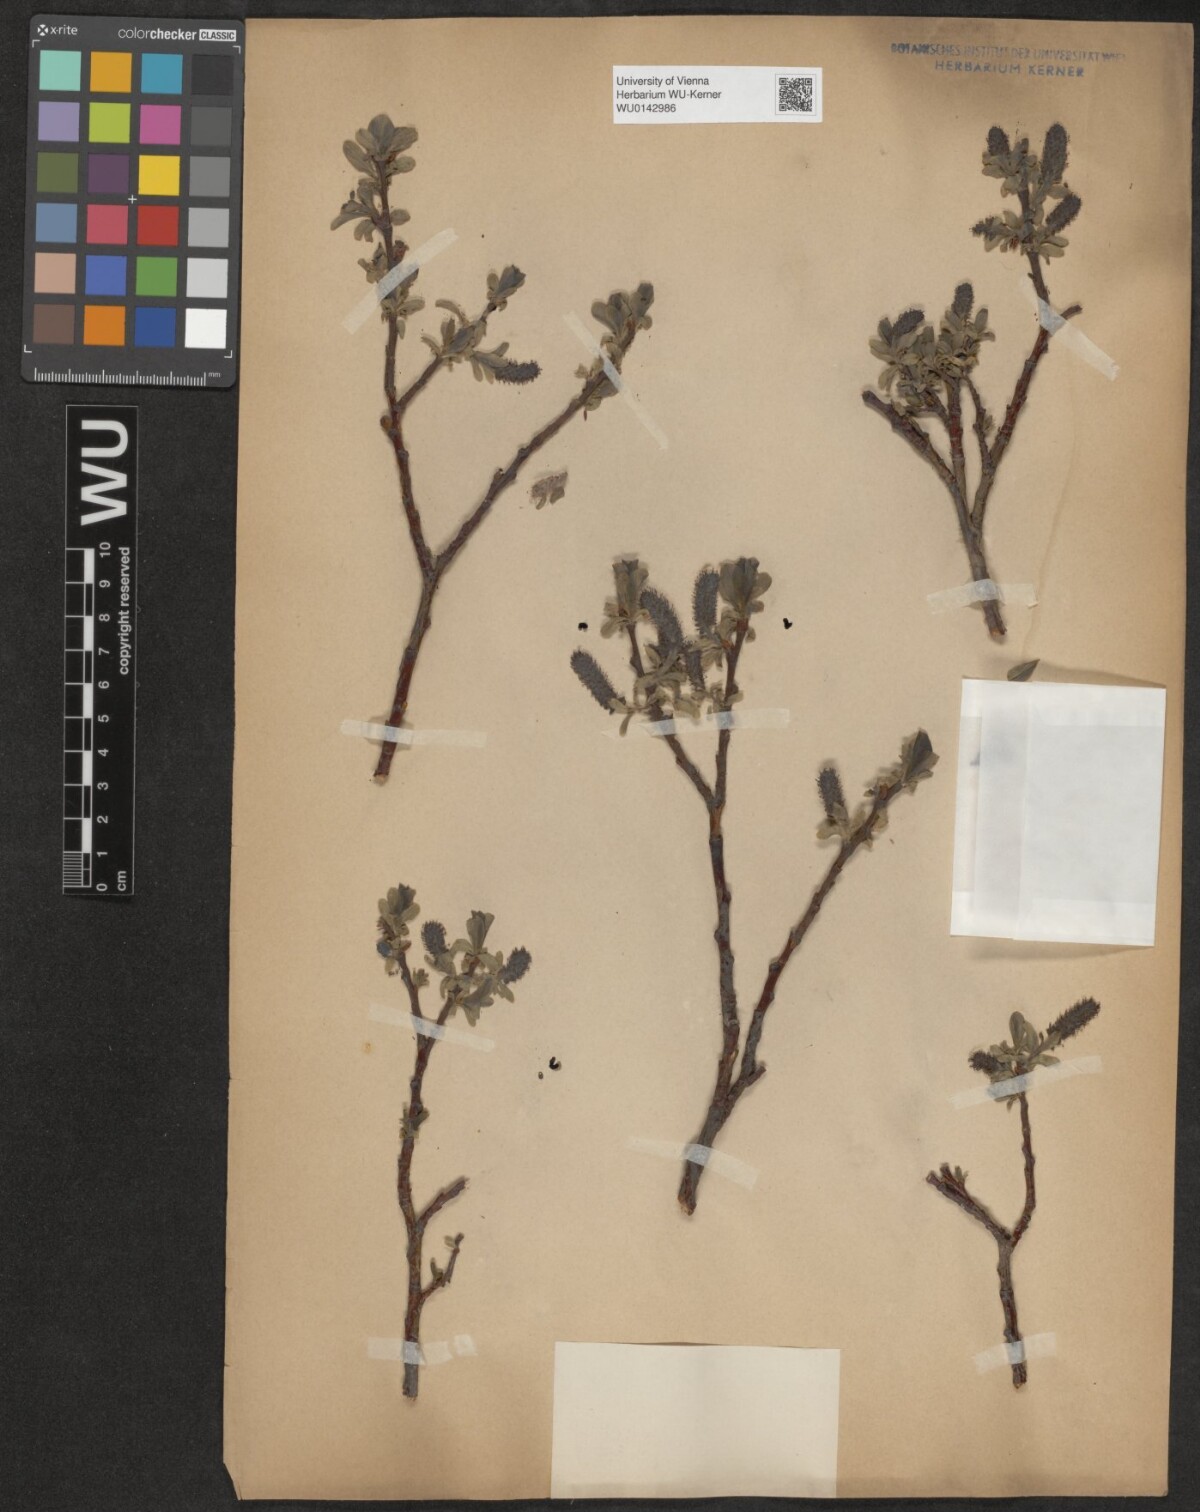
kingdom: Plantae
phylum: Tracheophyta
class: Magnoliopsida
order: Malpighiales
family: Salicaceae
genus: Salix
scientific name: Salix myrsinites
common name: Myrtle willow
